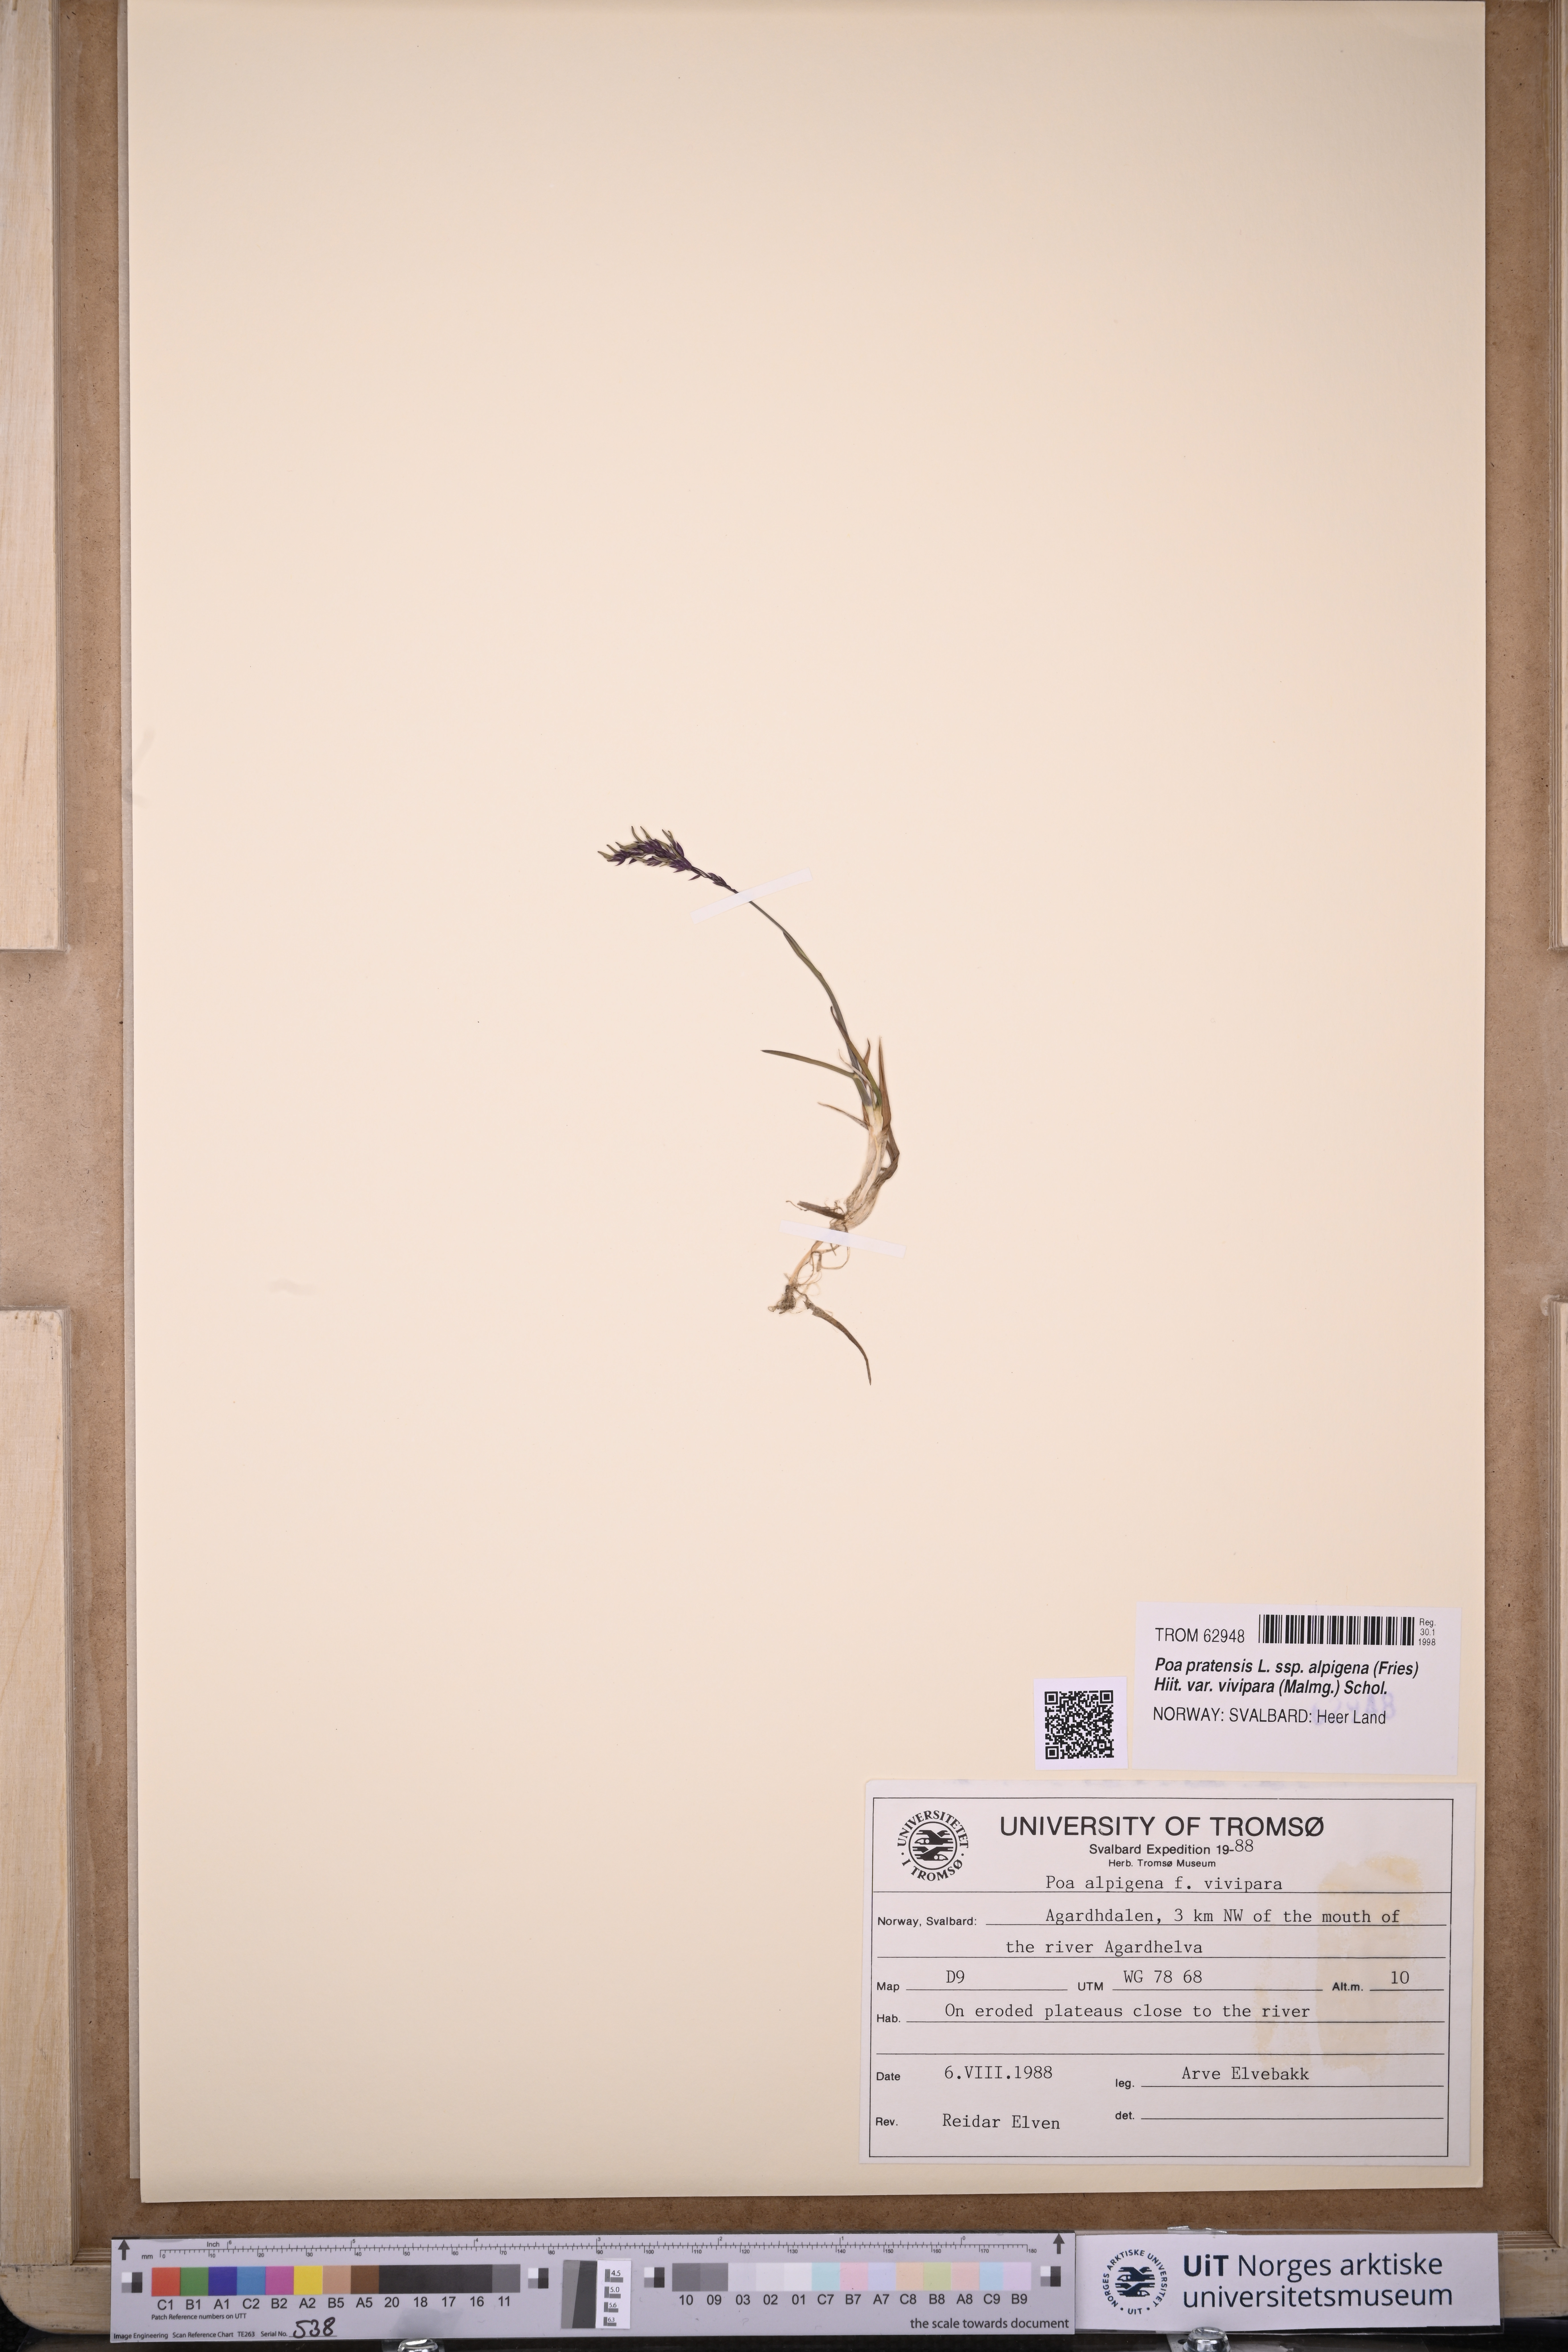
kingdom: Plantae
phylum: Tracheophyta
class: Liliopsida
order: Poales
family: Poaceae
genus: Poa
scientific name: Poa arctica
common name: Arctic bluegrass
